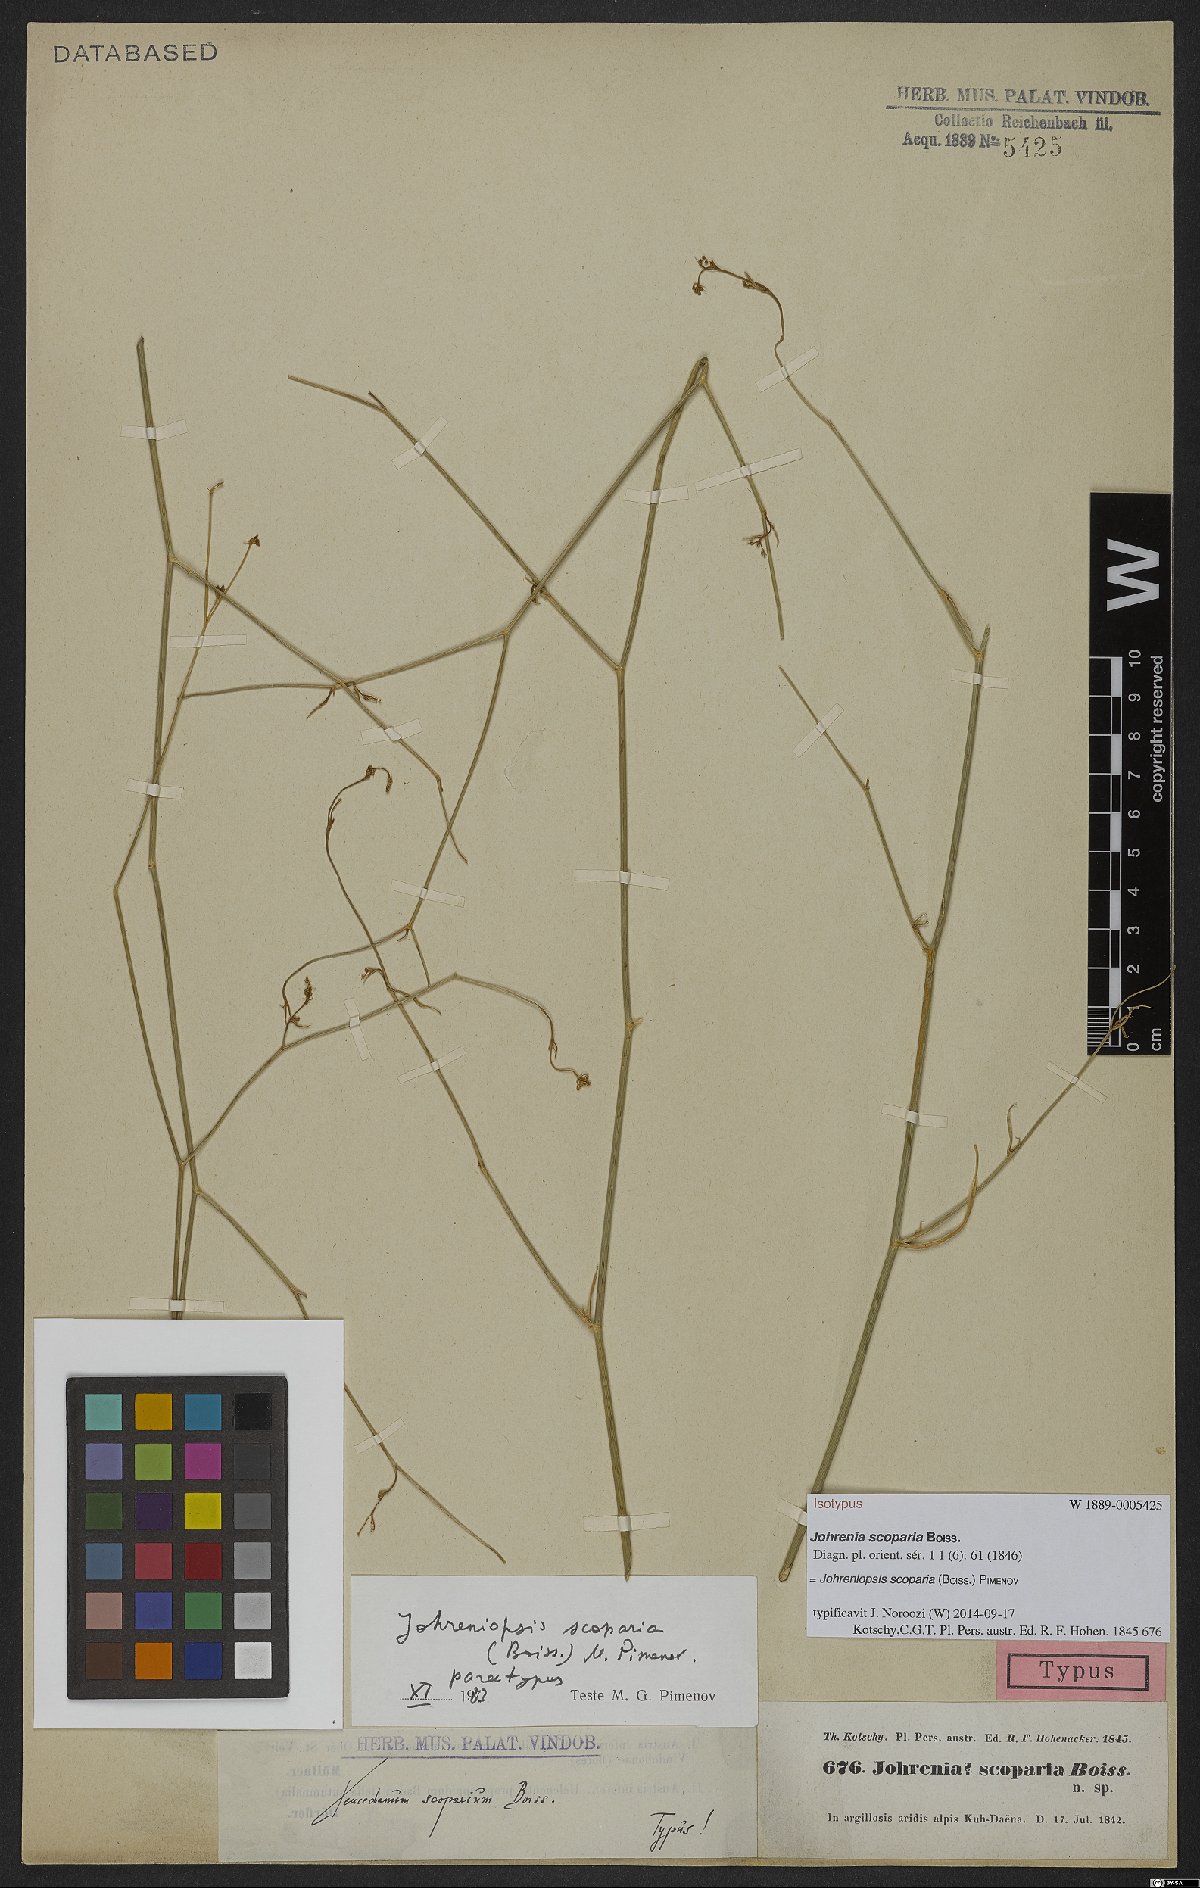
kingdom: Plantae
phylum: Tracheophyta
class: Magnoliopsida
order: Apiales
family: Apiaceae
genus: Dichoropetalum
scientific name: Dichoropetalum scoparium
